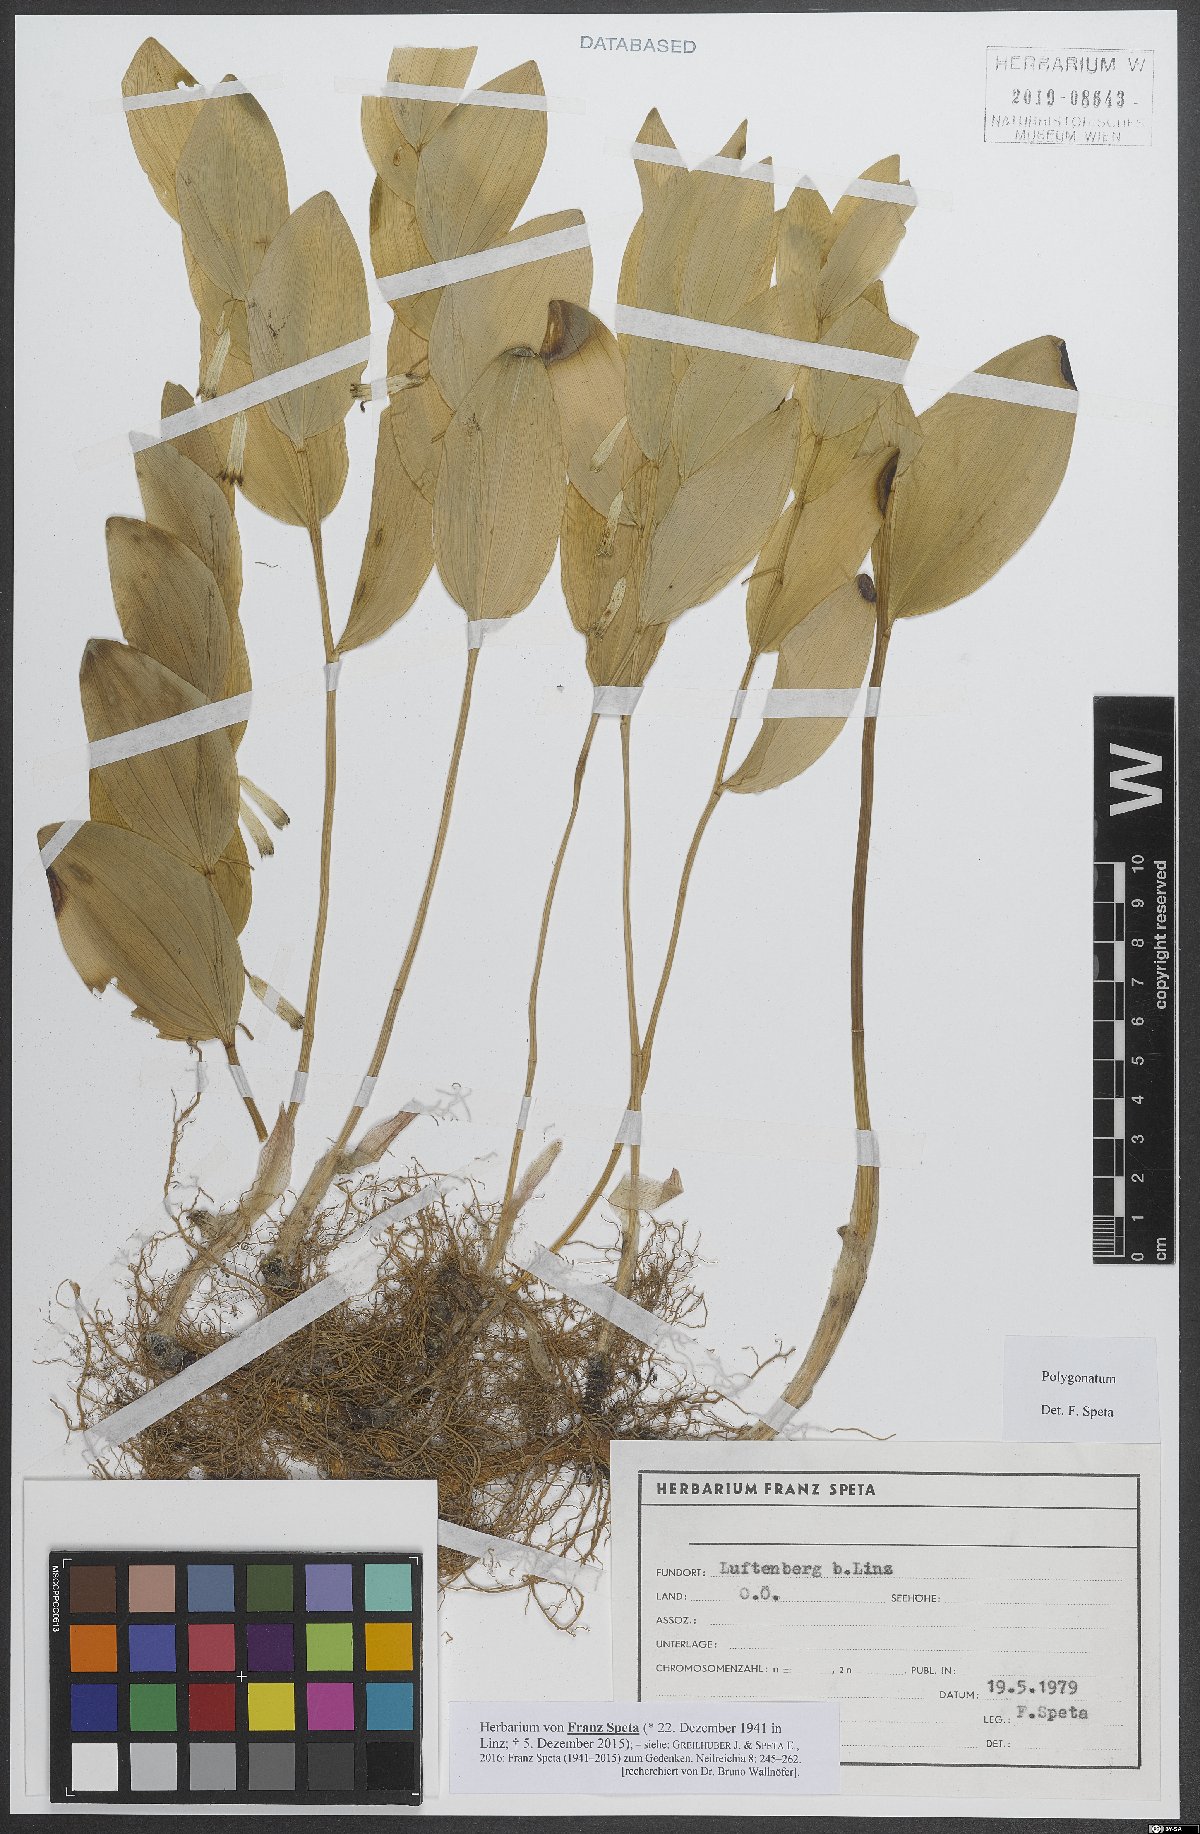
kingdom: Plantae
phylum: Tracheophyta
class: Liliopsida
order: Asparagales
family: Asparagaceae
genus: Polygonatum
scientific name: Polygonatum
